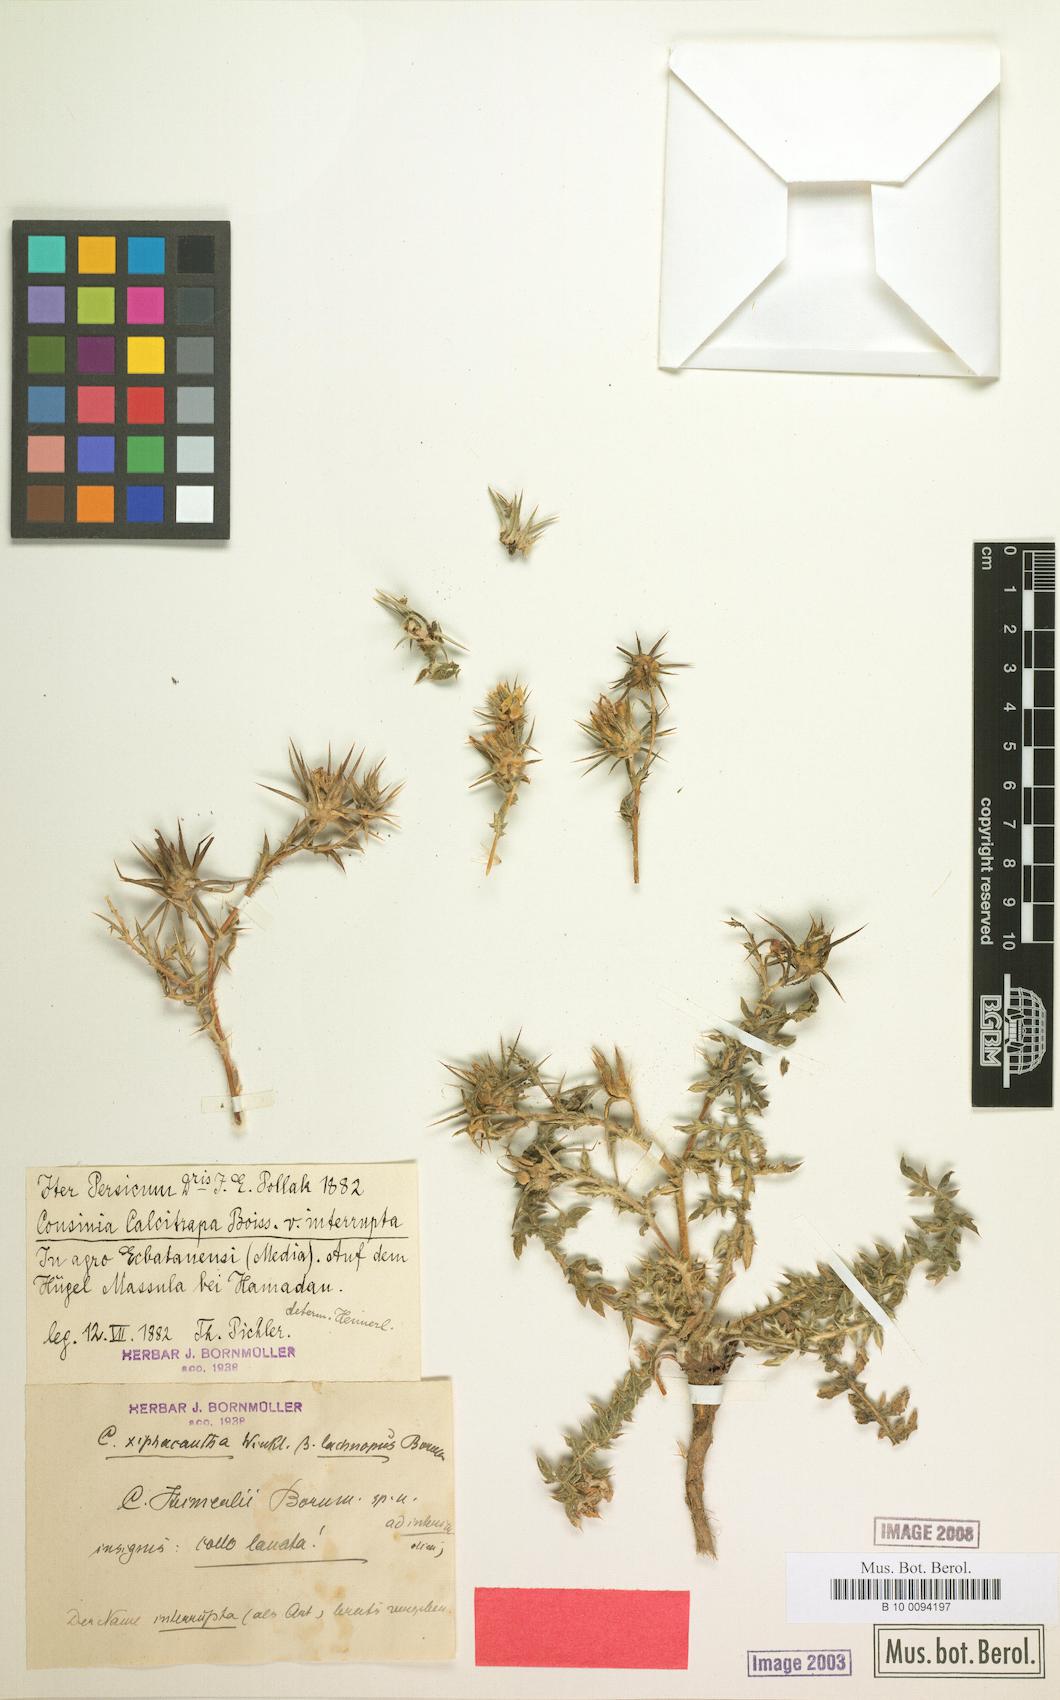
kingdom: Plantae
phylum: Tracheophyta
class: Magnoliopsida
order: Asterales
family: Asteraceae
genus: Cousinia
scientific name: Cousinia calcitrapa
